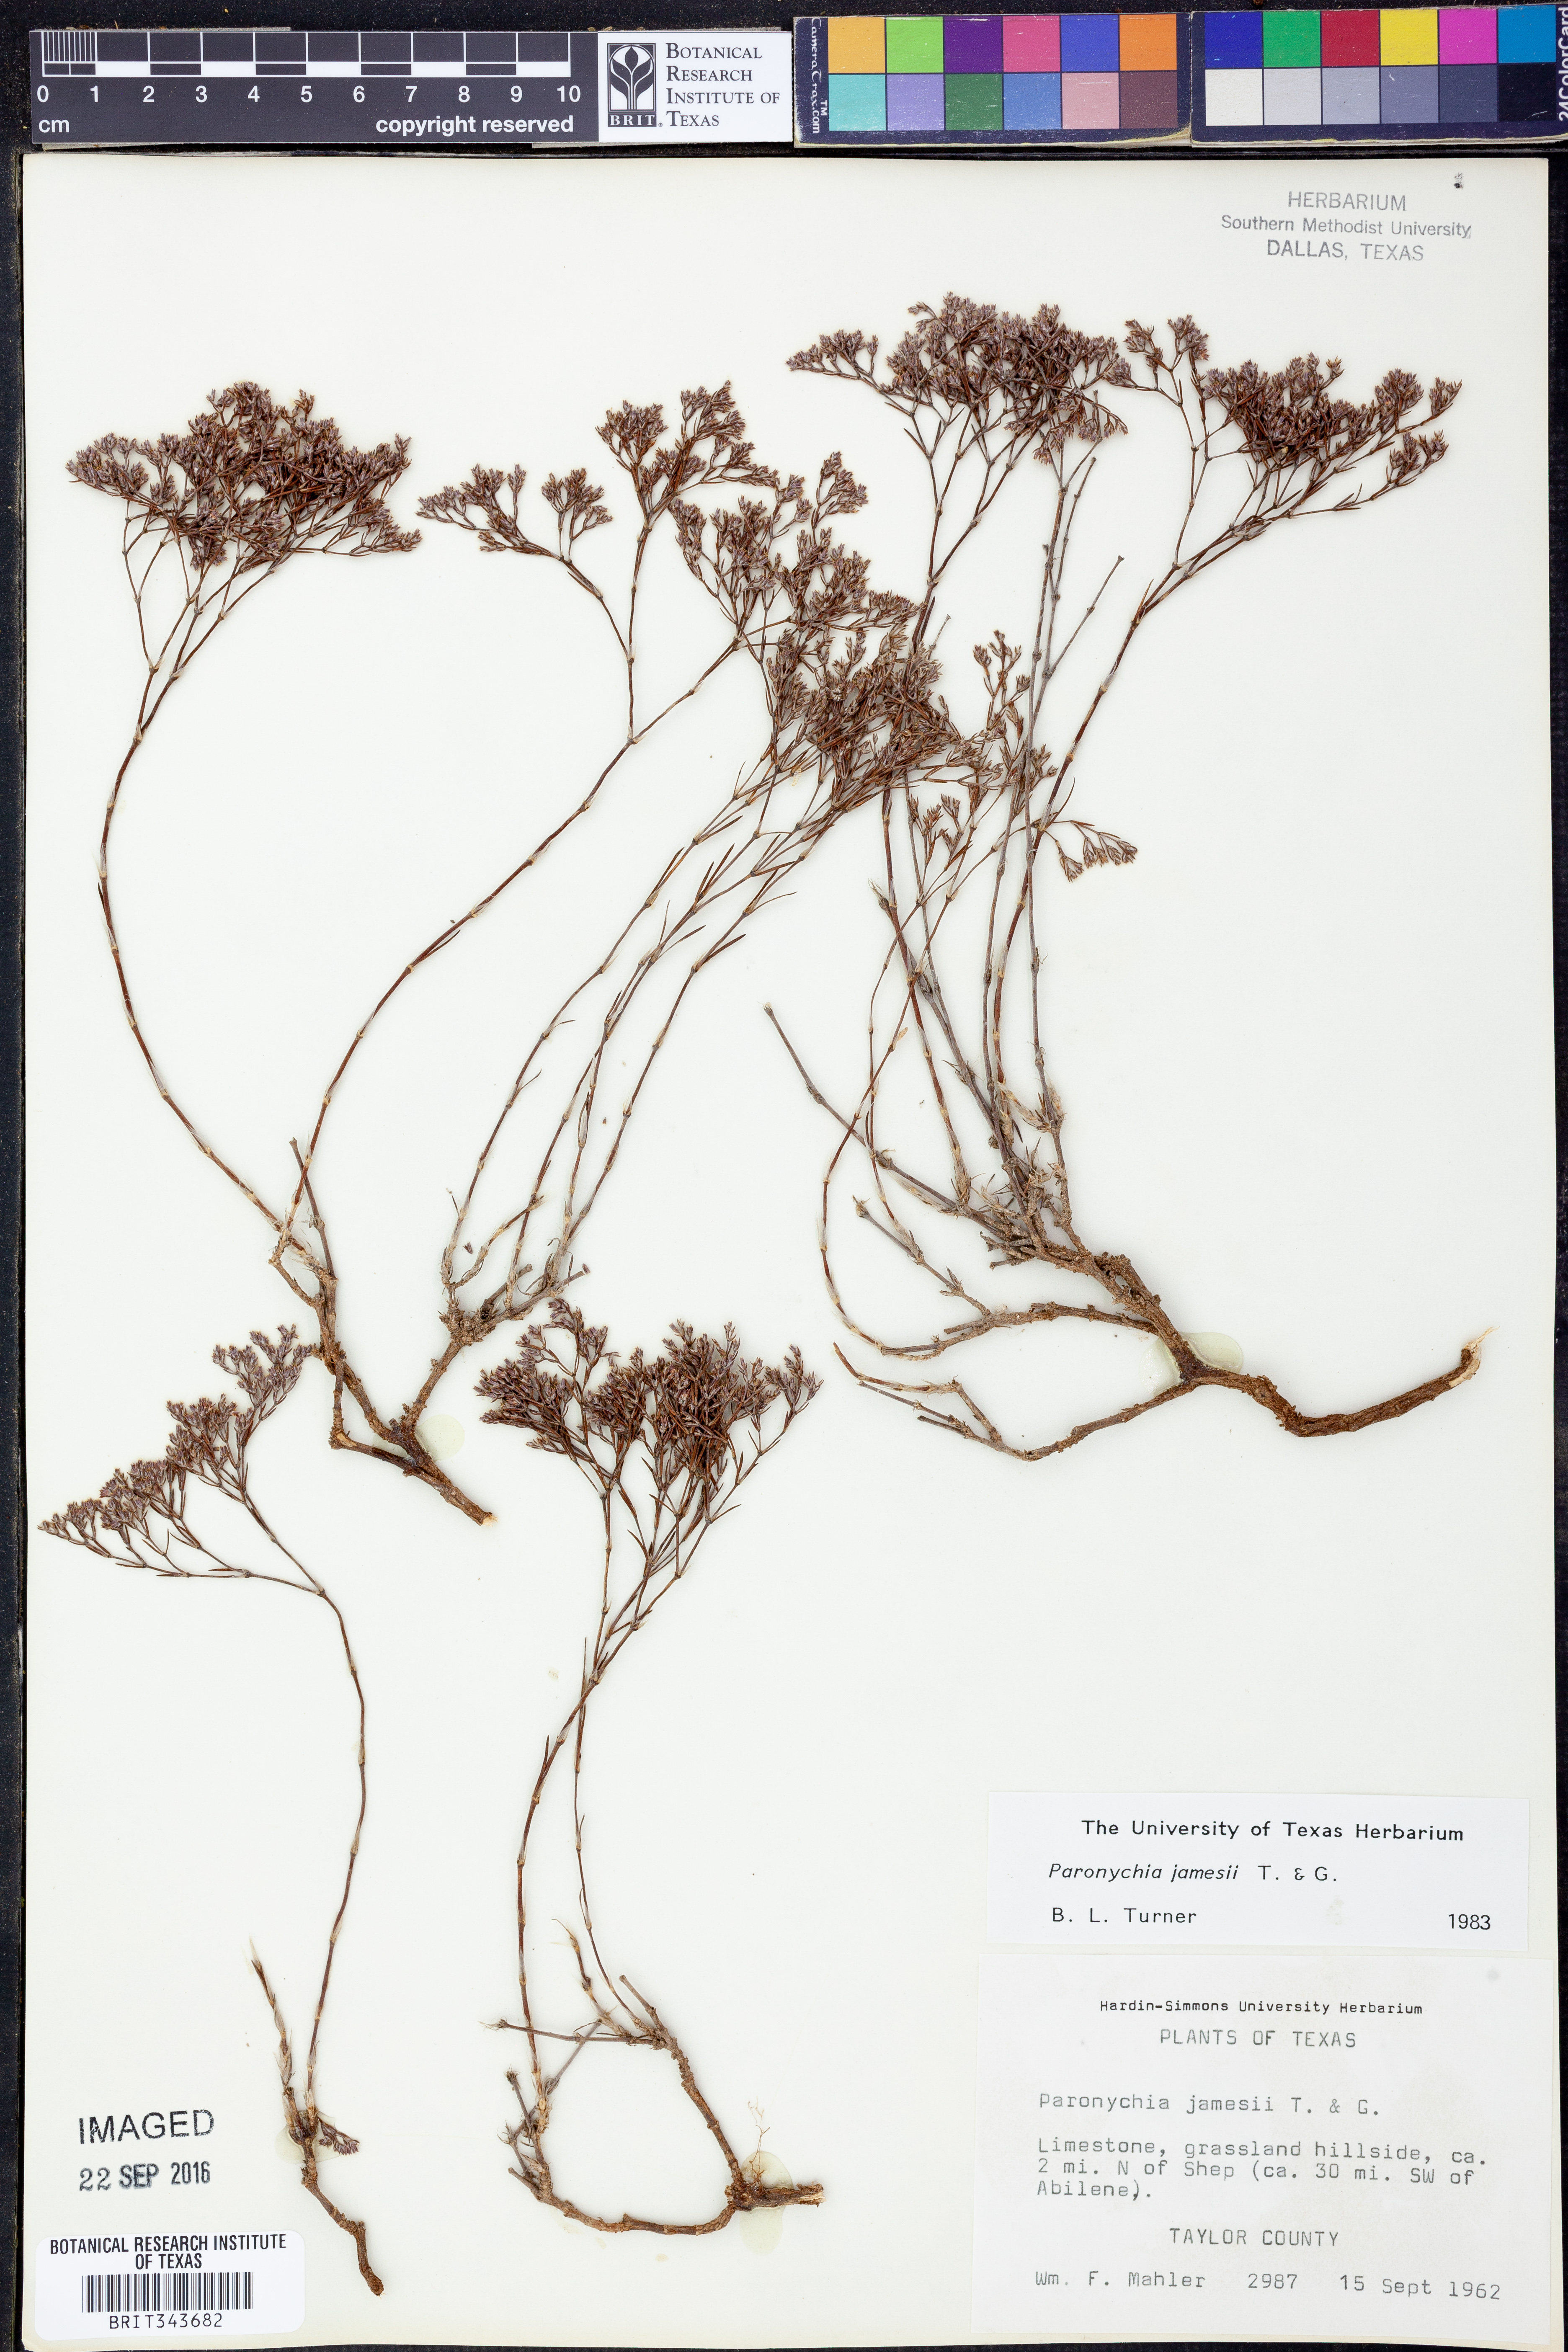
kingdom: Plantae
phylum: Tracheophyta
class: Magnoliopsida
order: Caryophyllales
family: Caryophyllaceae
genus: Paronychia
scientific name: Paronychia jamesii
